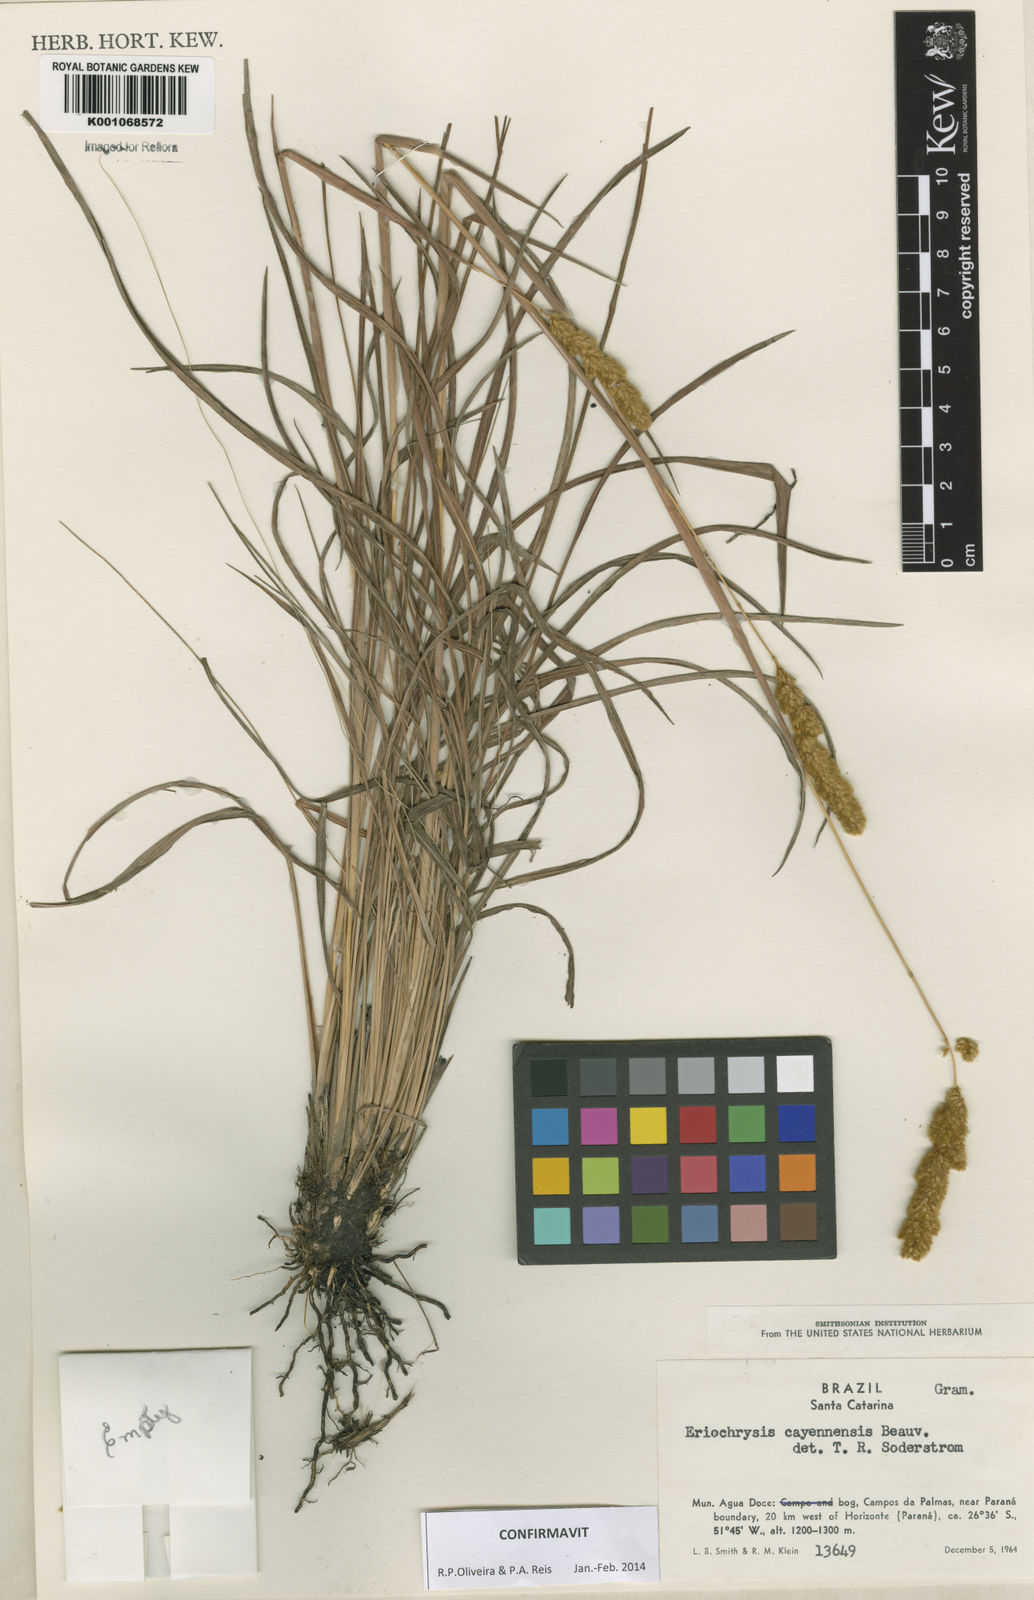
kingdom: Plantae
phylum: Tracheophyta
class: Liliopsida
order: Poales
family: Poaceae
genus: Eriochrysis
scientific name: Eriochrysis cayennensis
